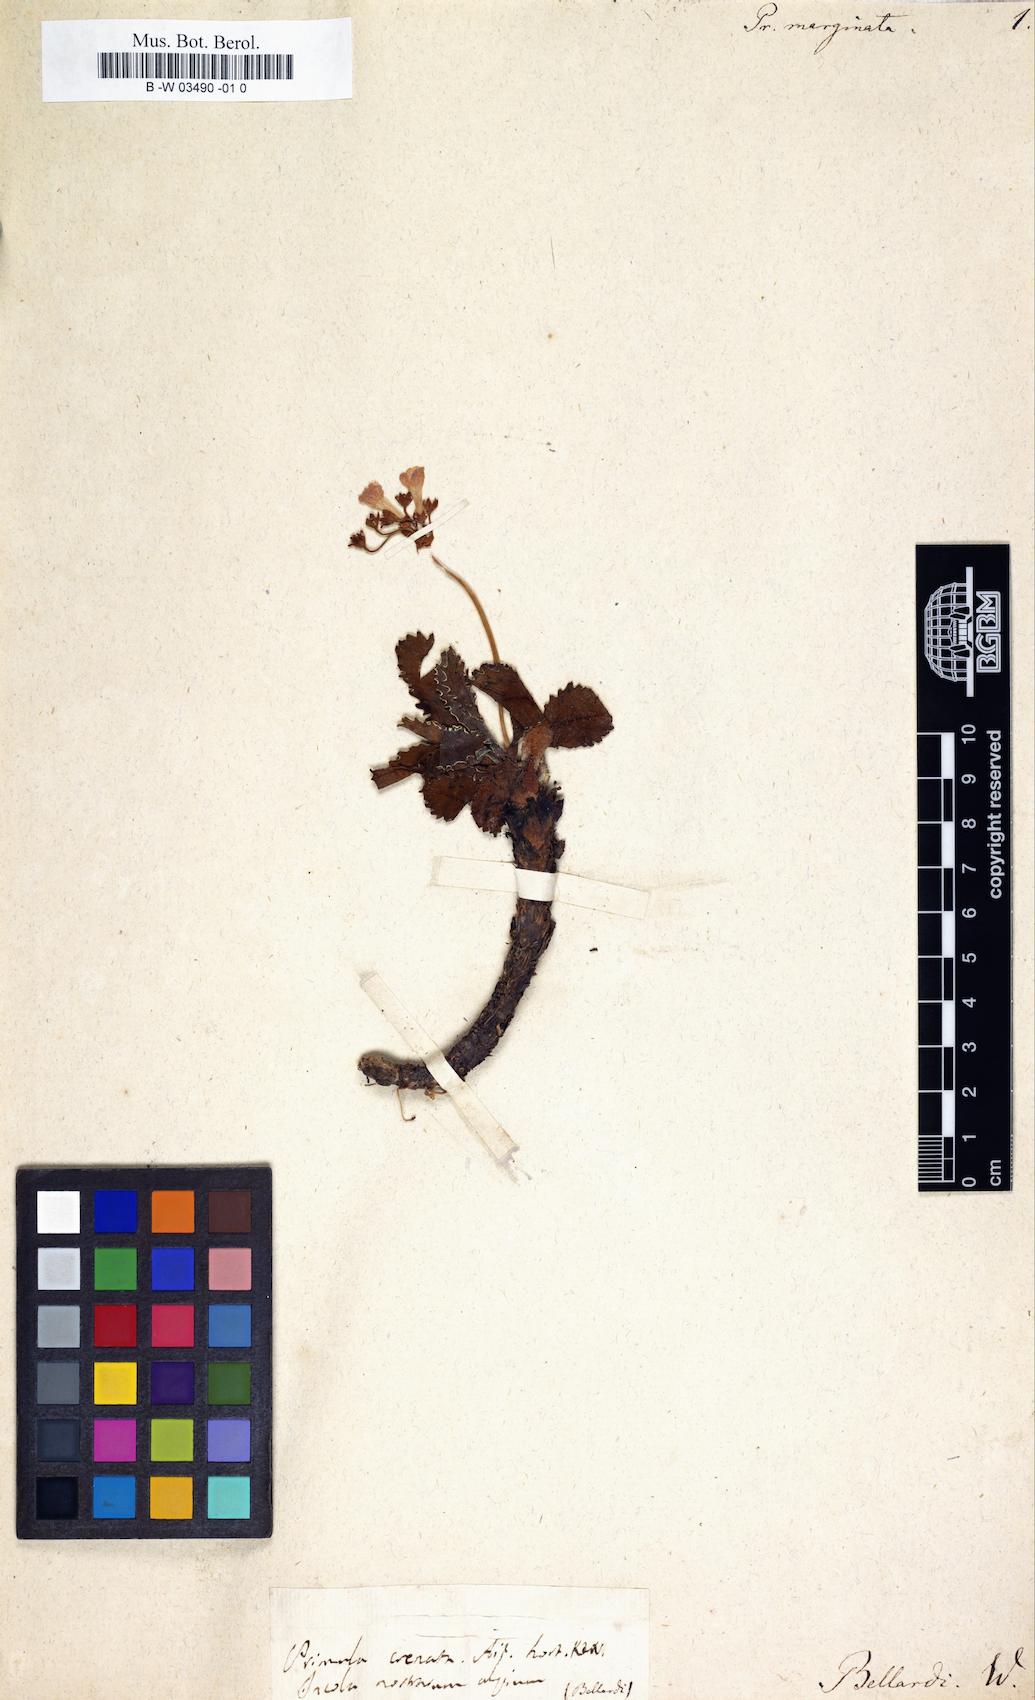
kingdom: Plantae
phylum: Tracheophyta
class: Magnoliopsida
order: Ericales
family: Primulaceae
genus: Primula
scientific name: Primula marginata
